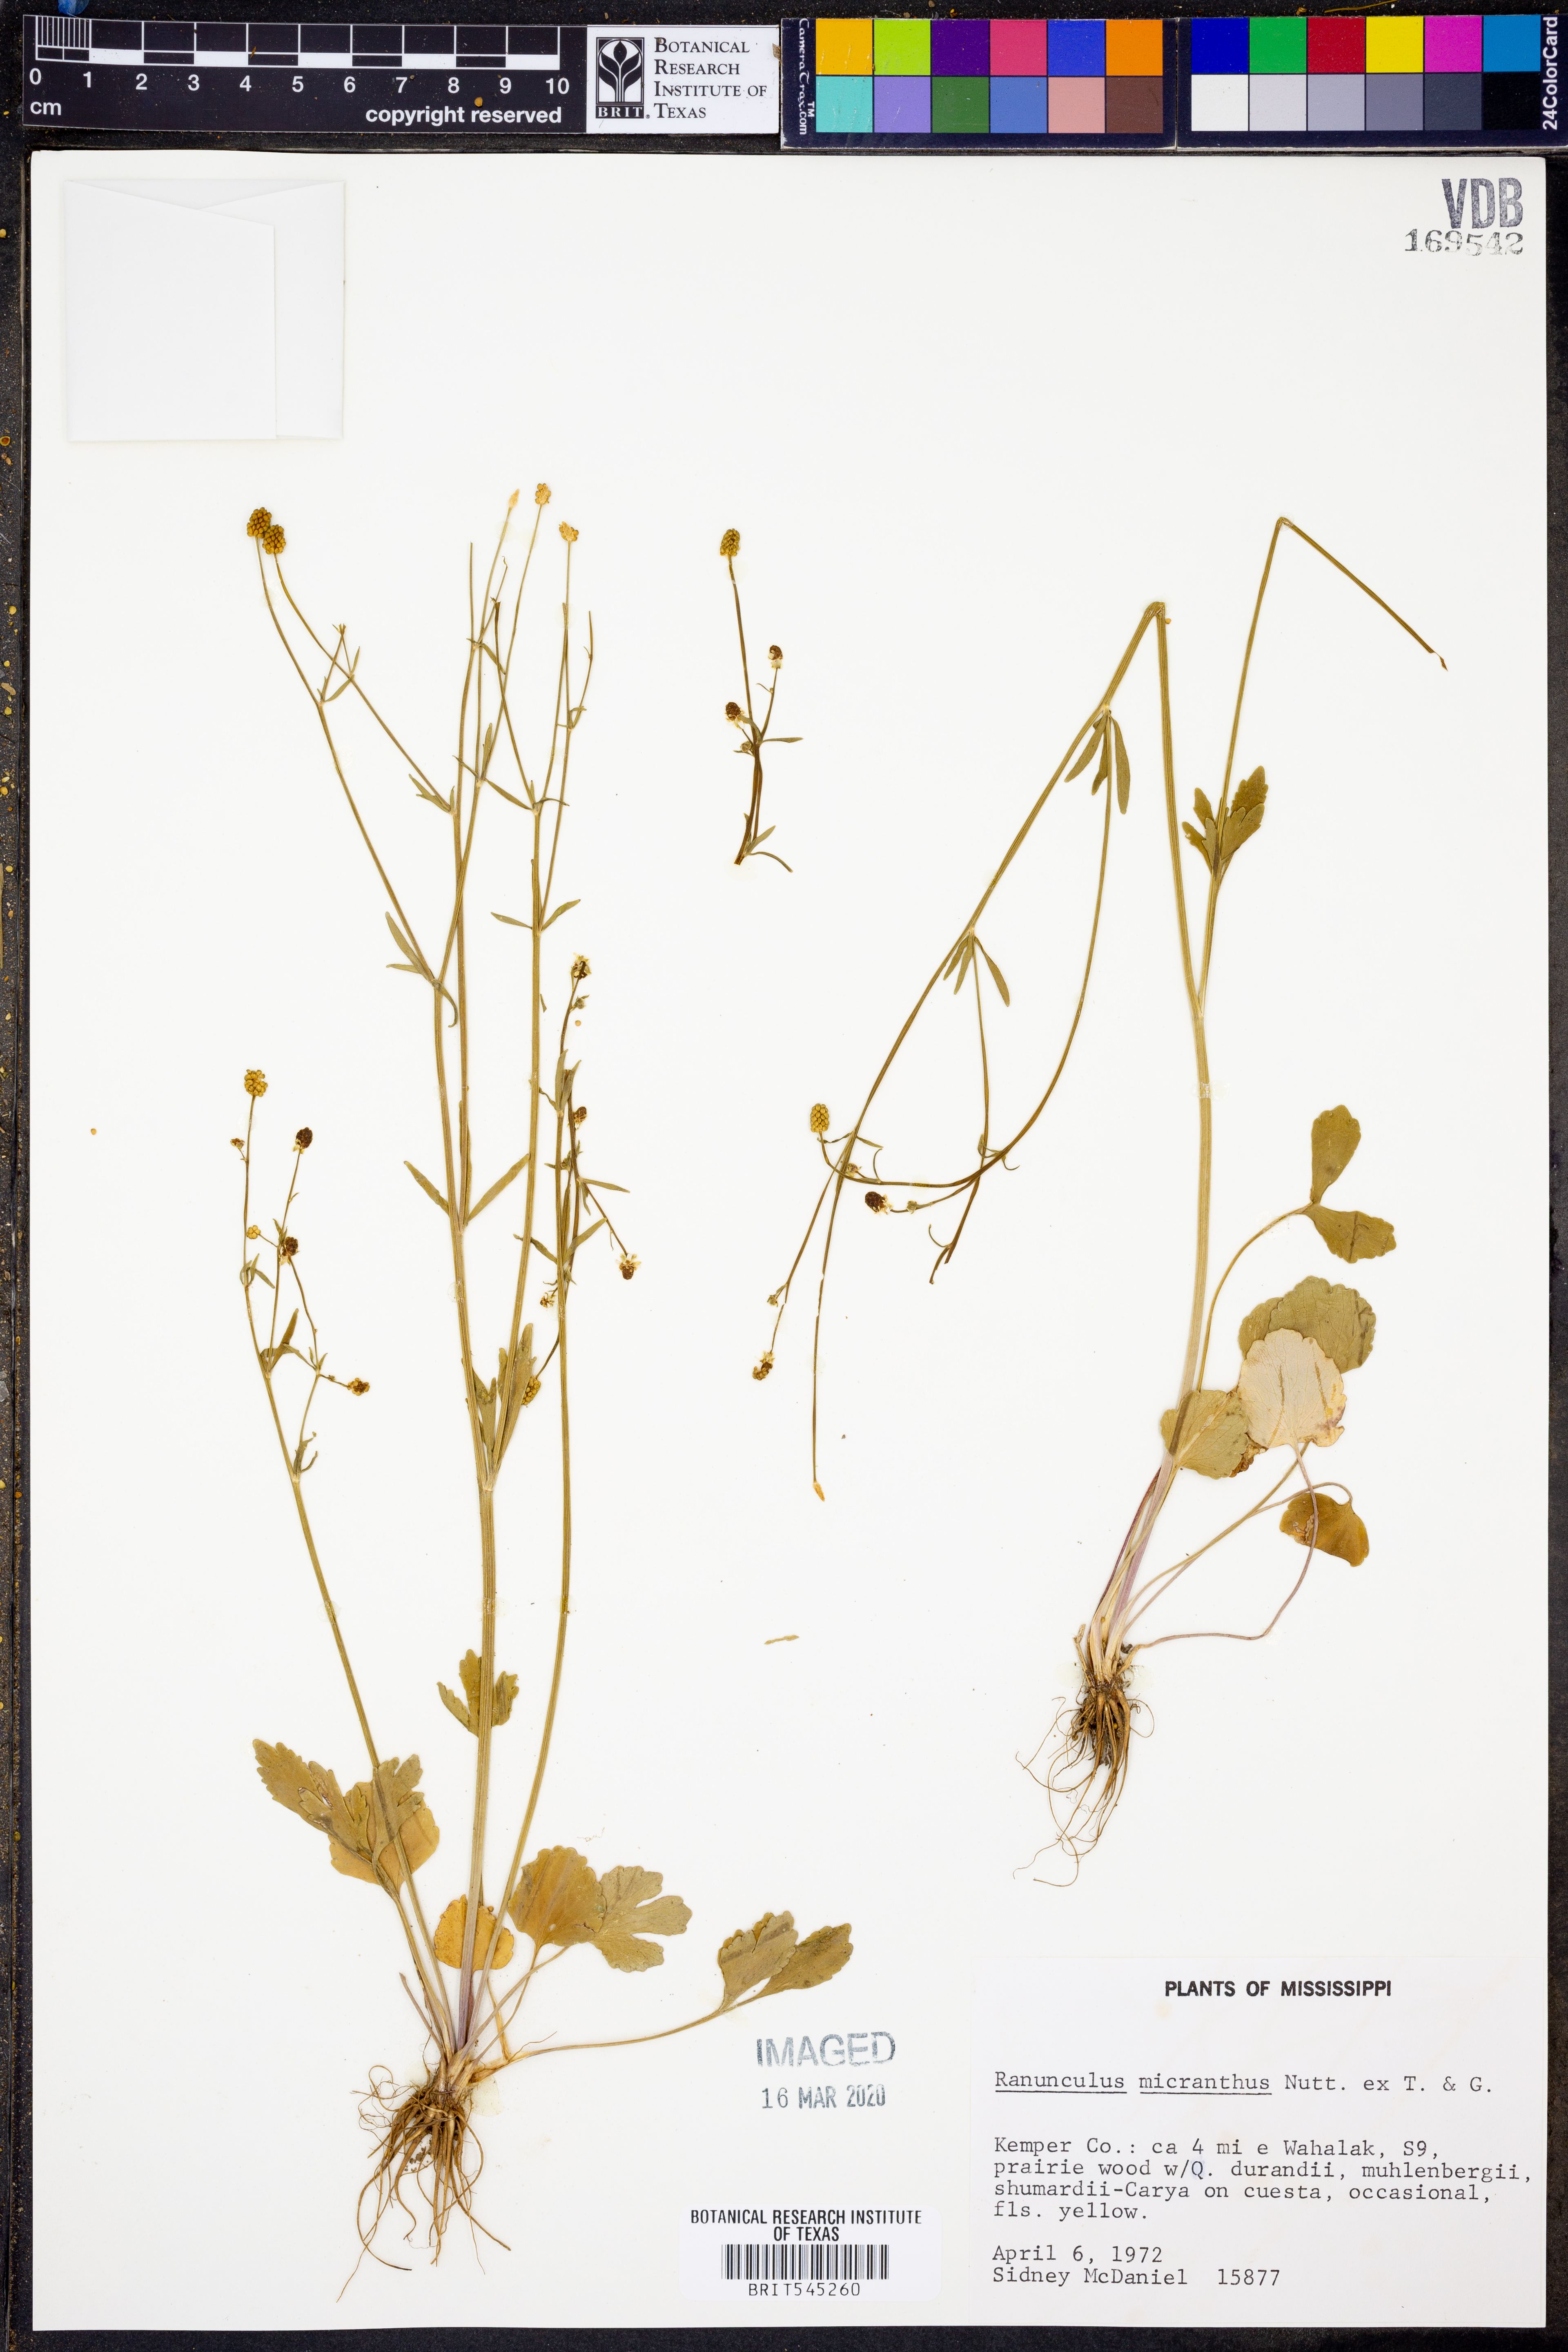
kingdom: Plantae
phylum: Tracheophyta
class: Magnoliopsida
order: Ranunculales
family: Ranunculaceae
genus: Ranunculus
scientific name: Ranunculus micranthus
